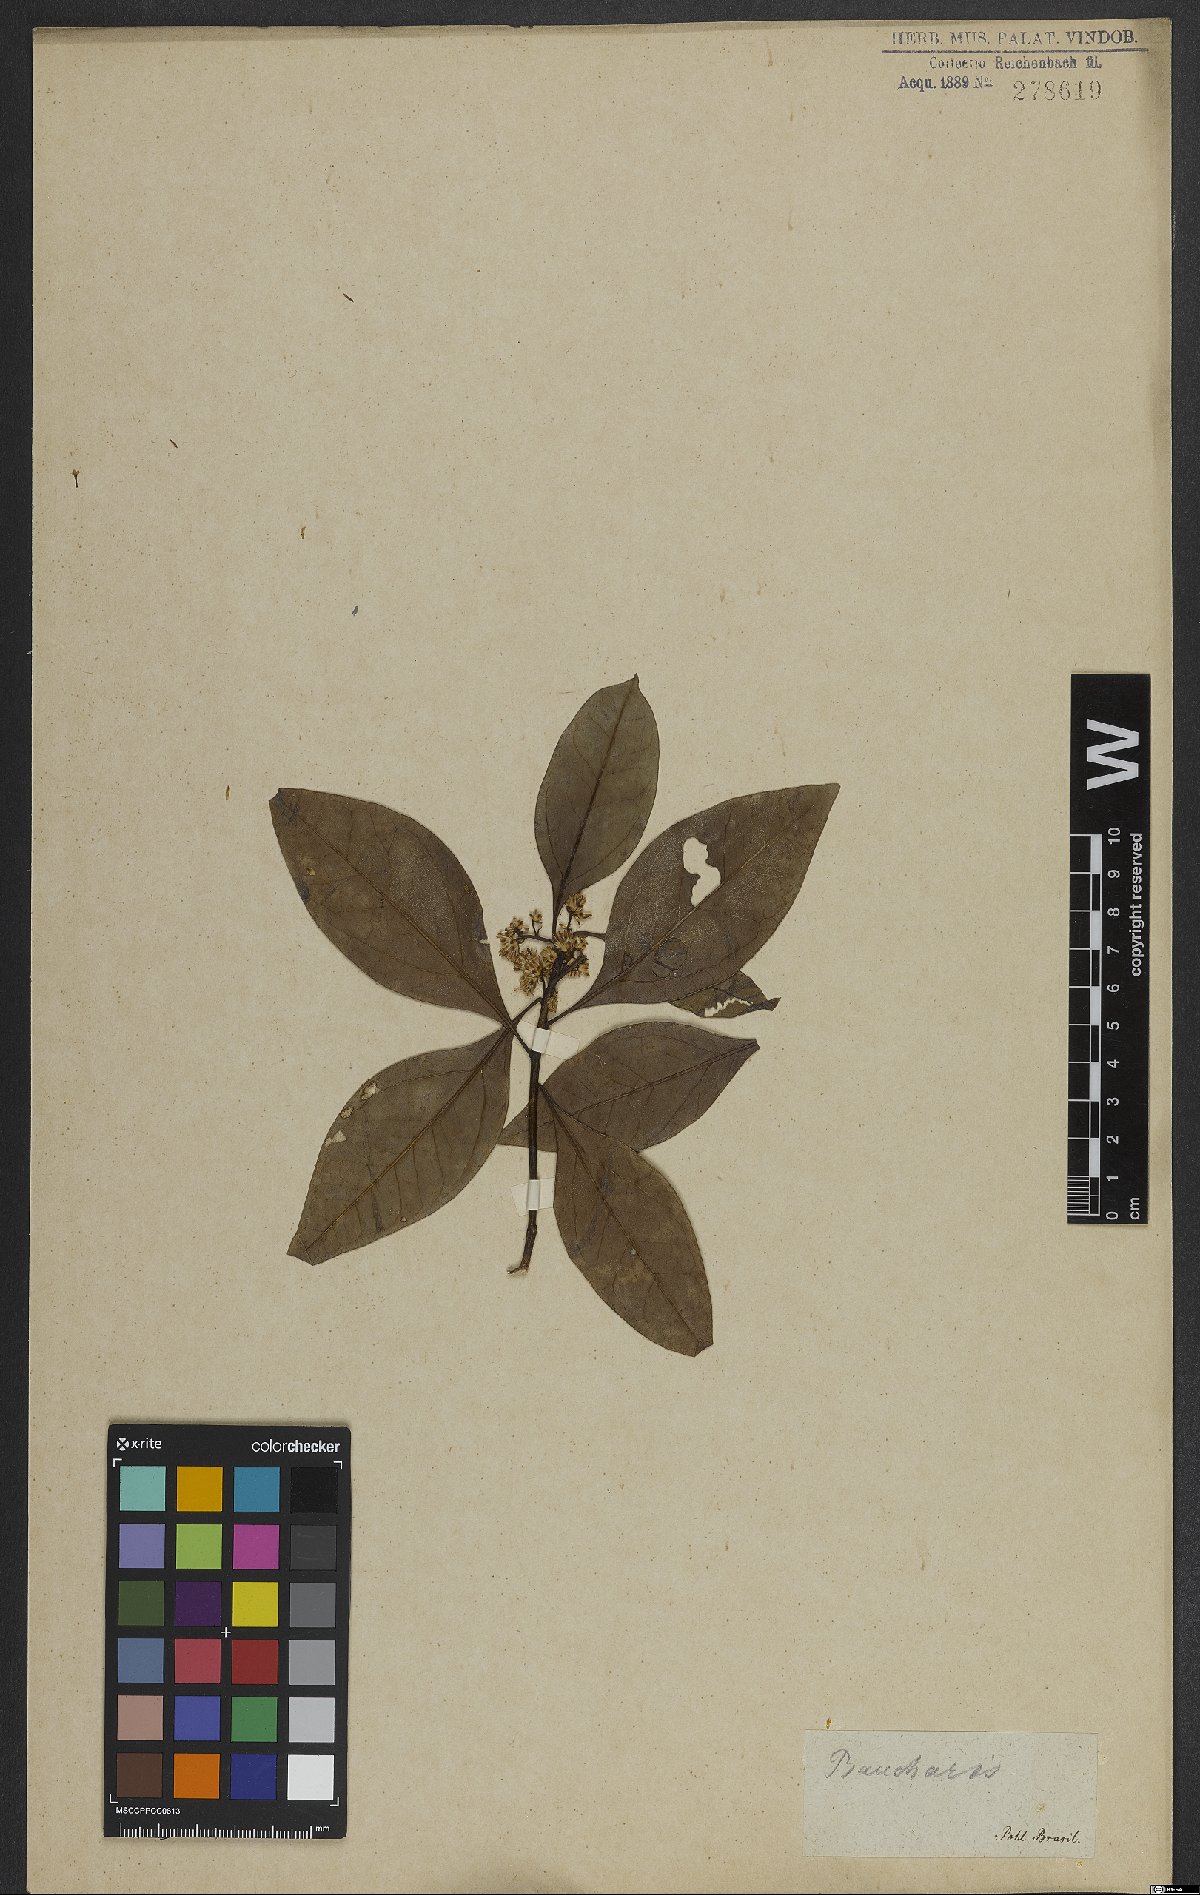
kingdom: Plantae
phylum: Tracheophyta
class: Magnoliopsida
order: Asterales
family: Asteraceae
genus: Baccharis
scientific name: Baccharis
